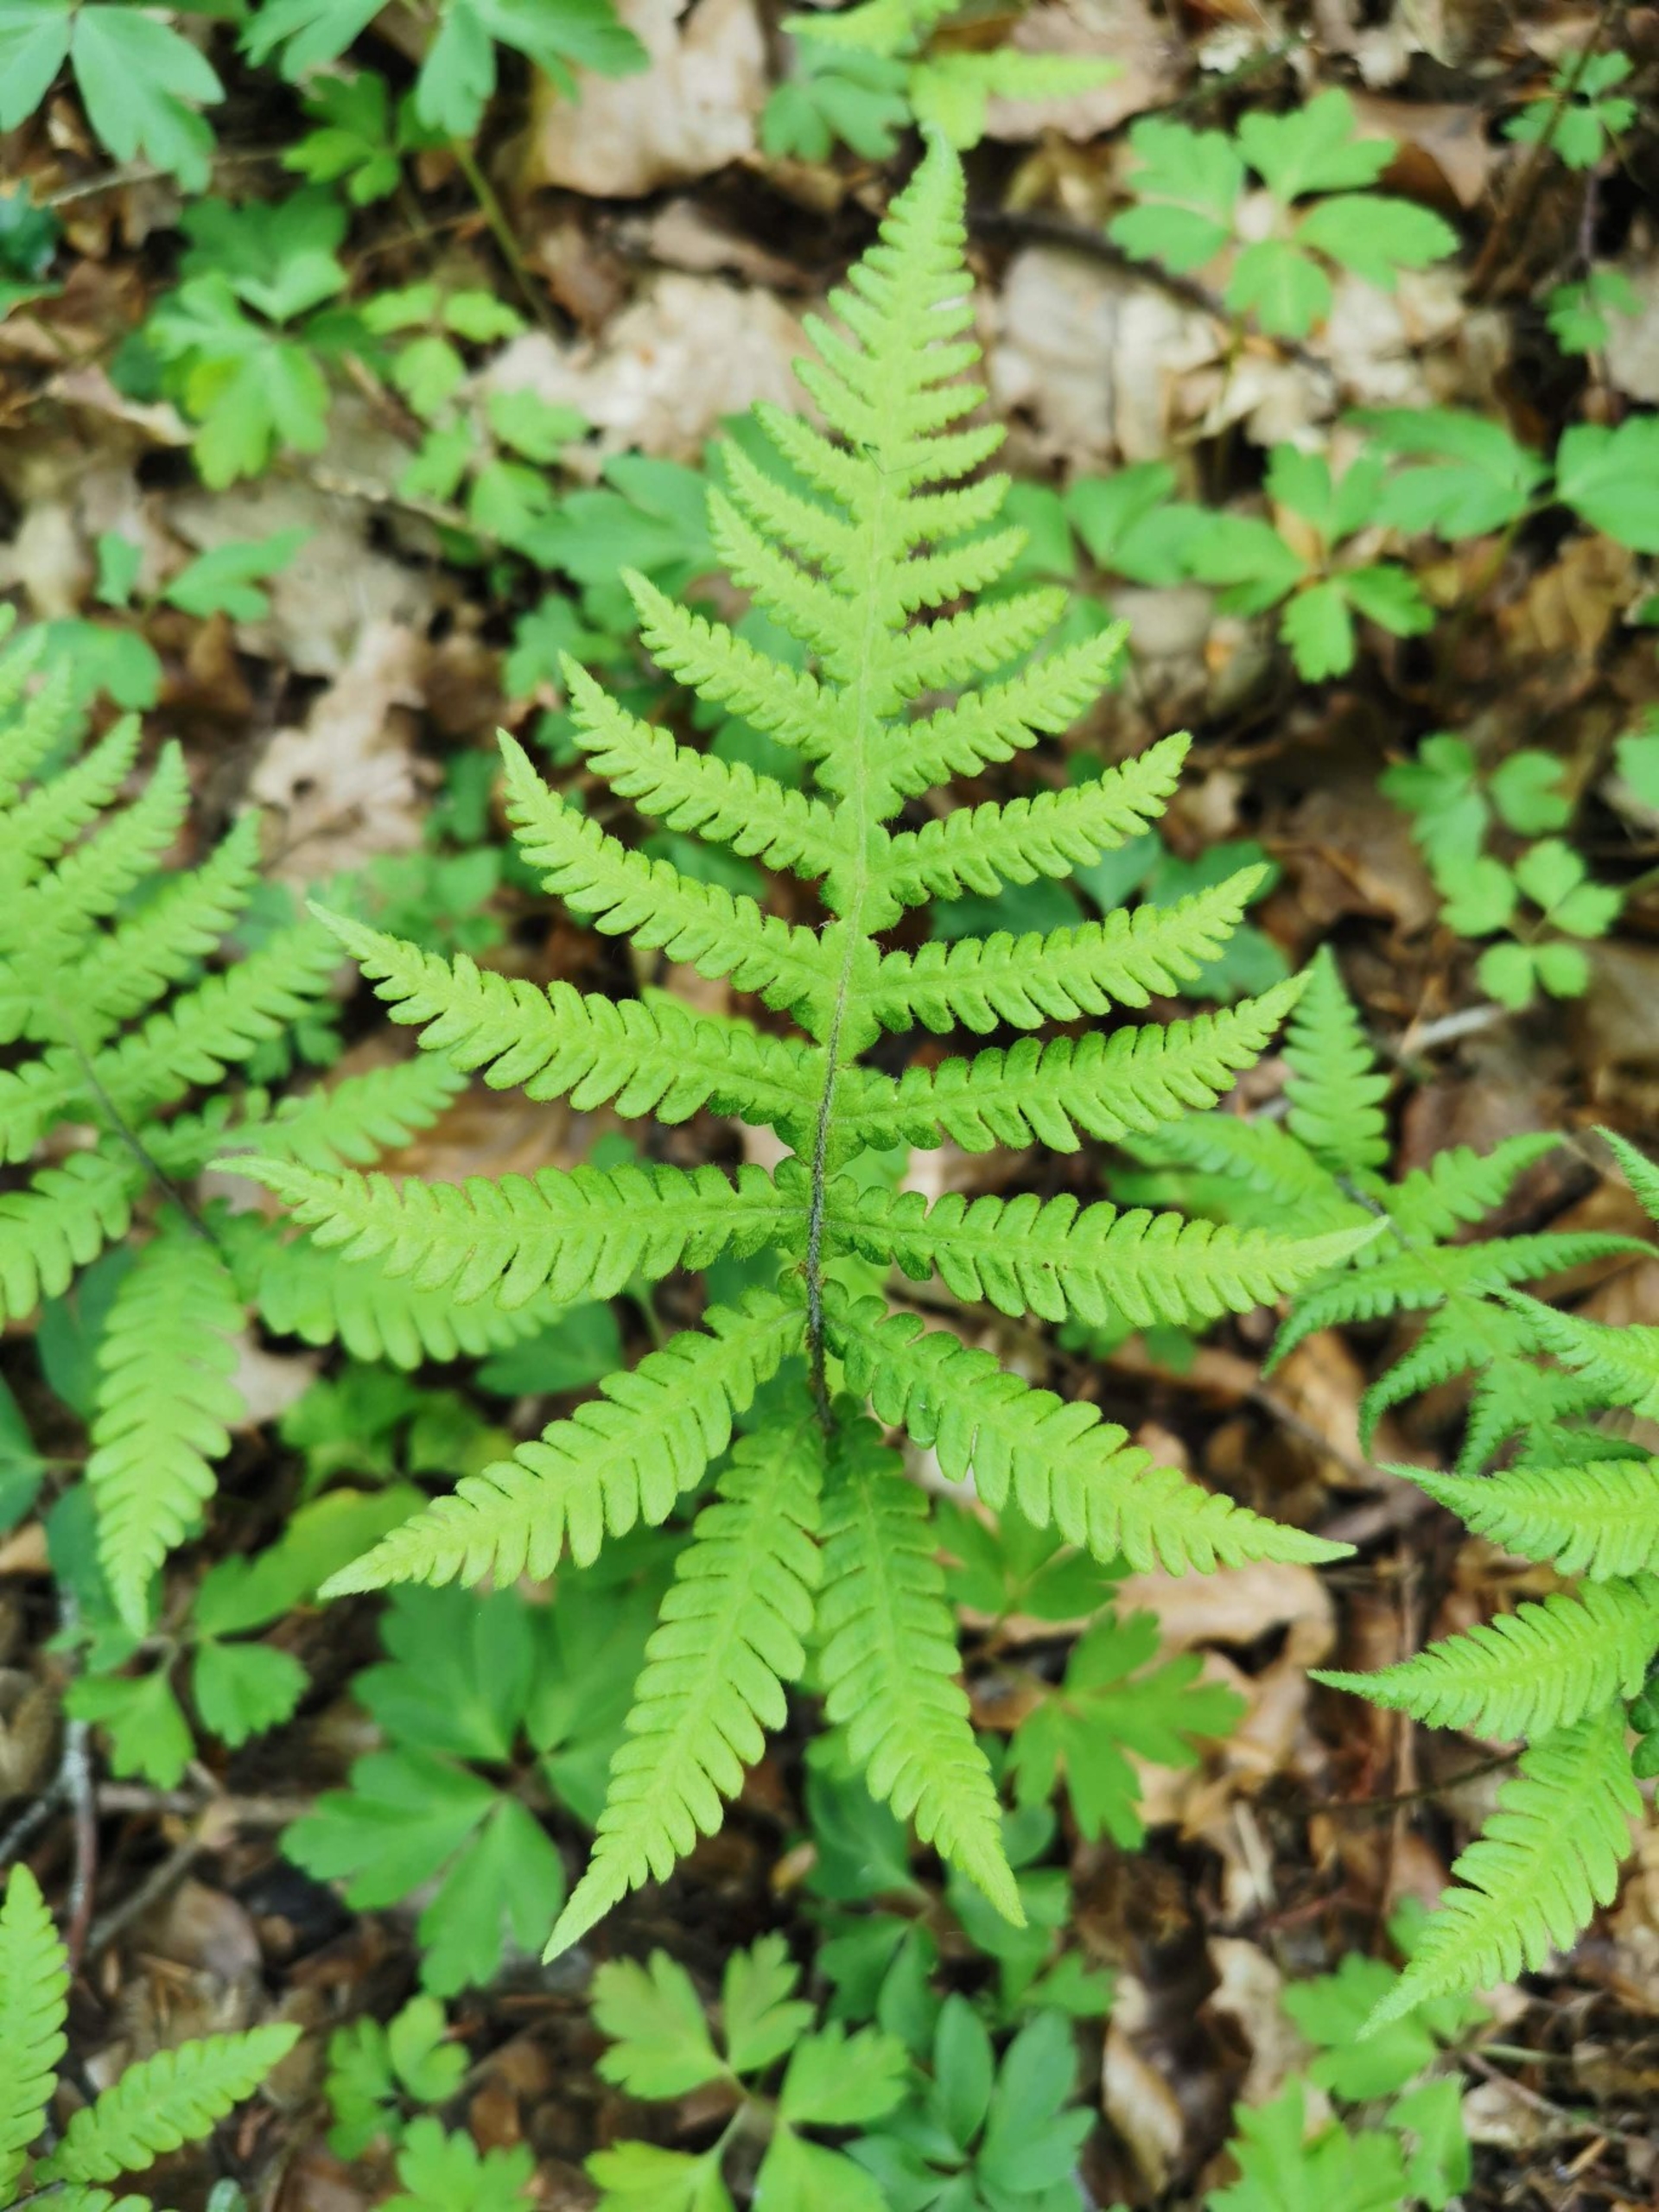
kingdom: Plantae
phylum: Tracheophyta
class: Polypodiopsida
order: Polypodiales
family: Thelypteridaceae
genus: Phegopteris
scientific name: Phegopteris connectilis
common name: Dunet egebregne
